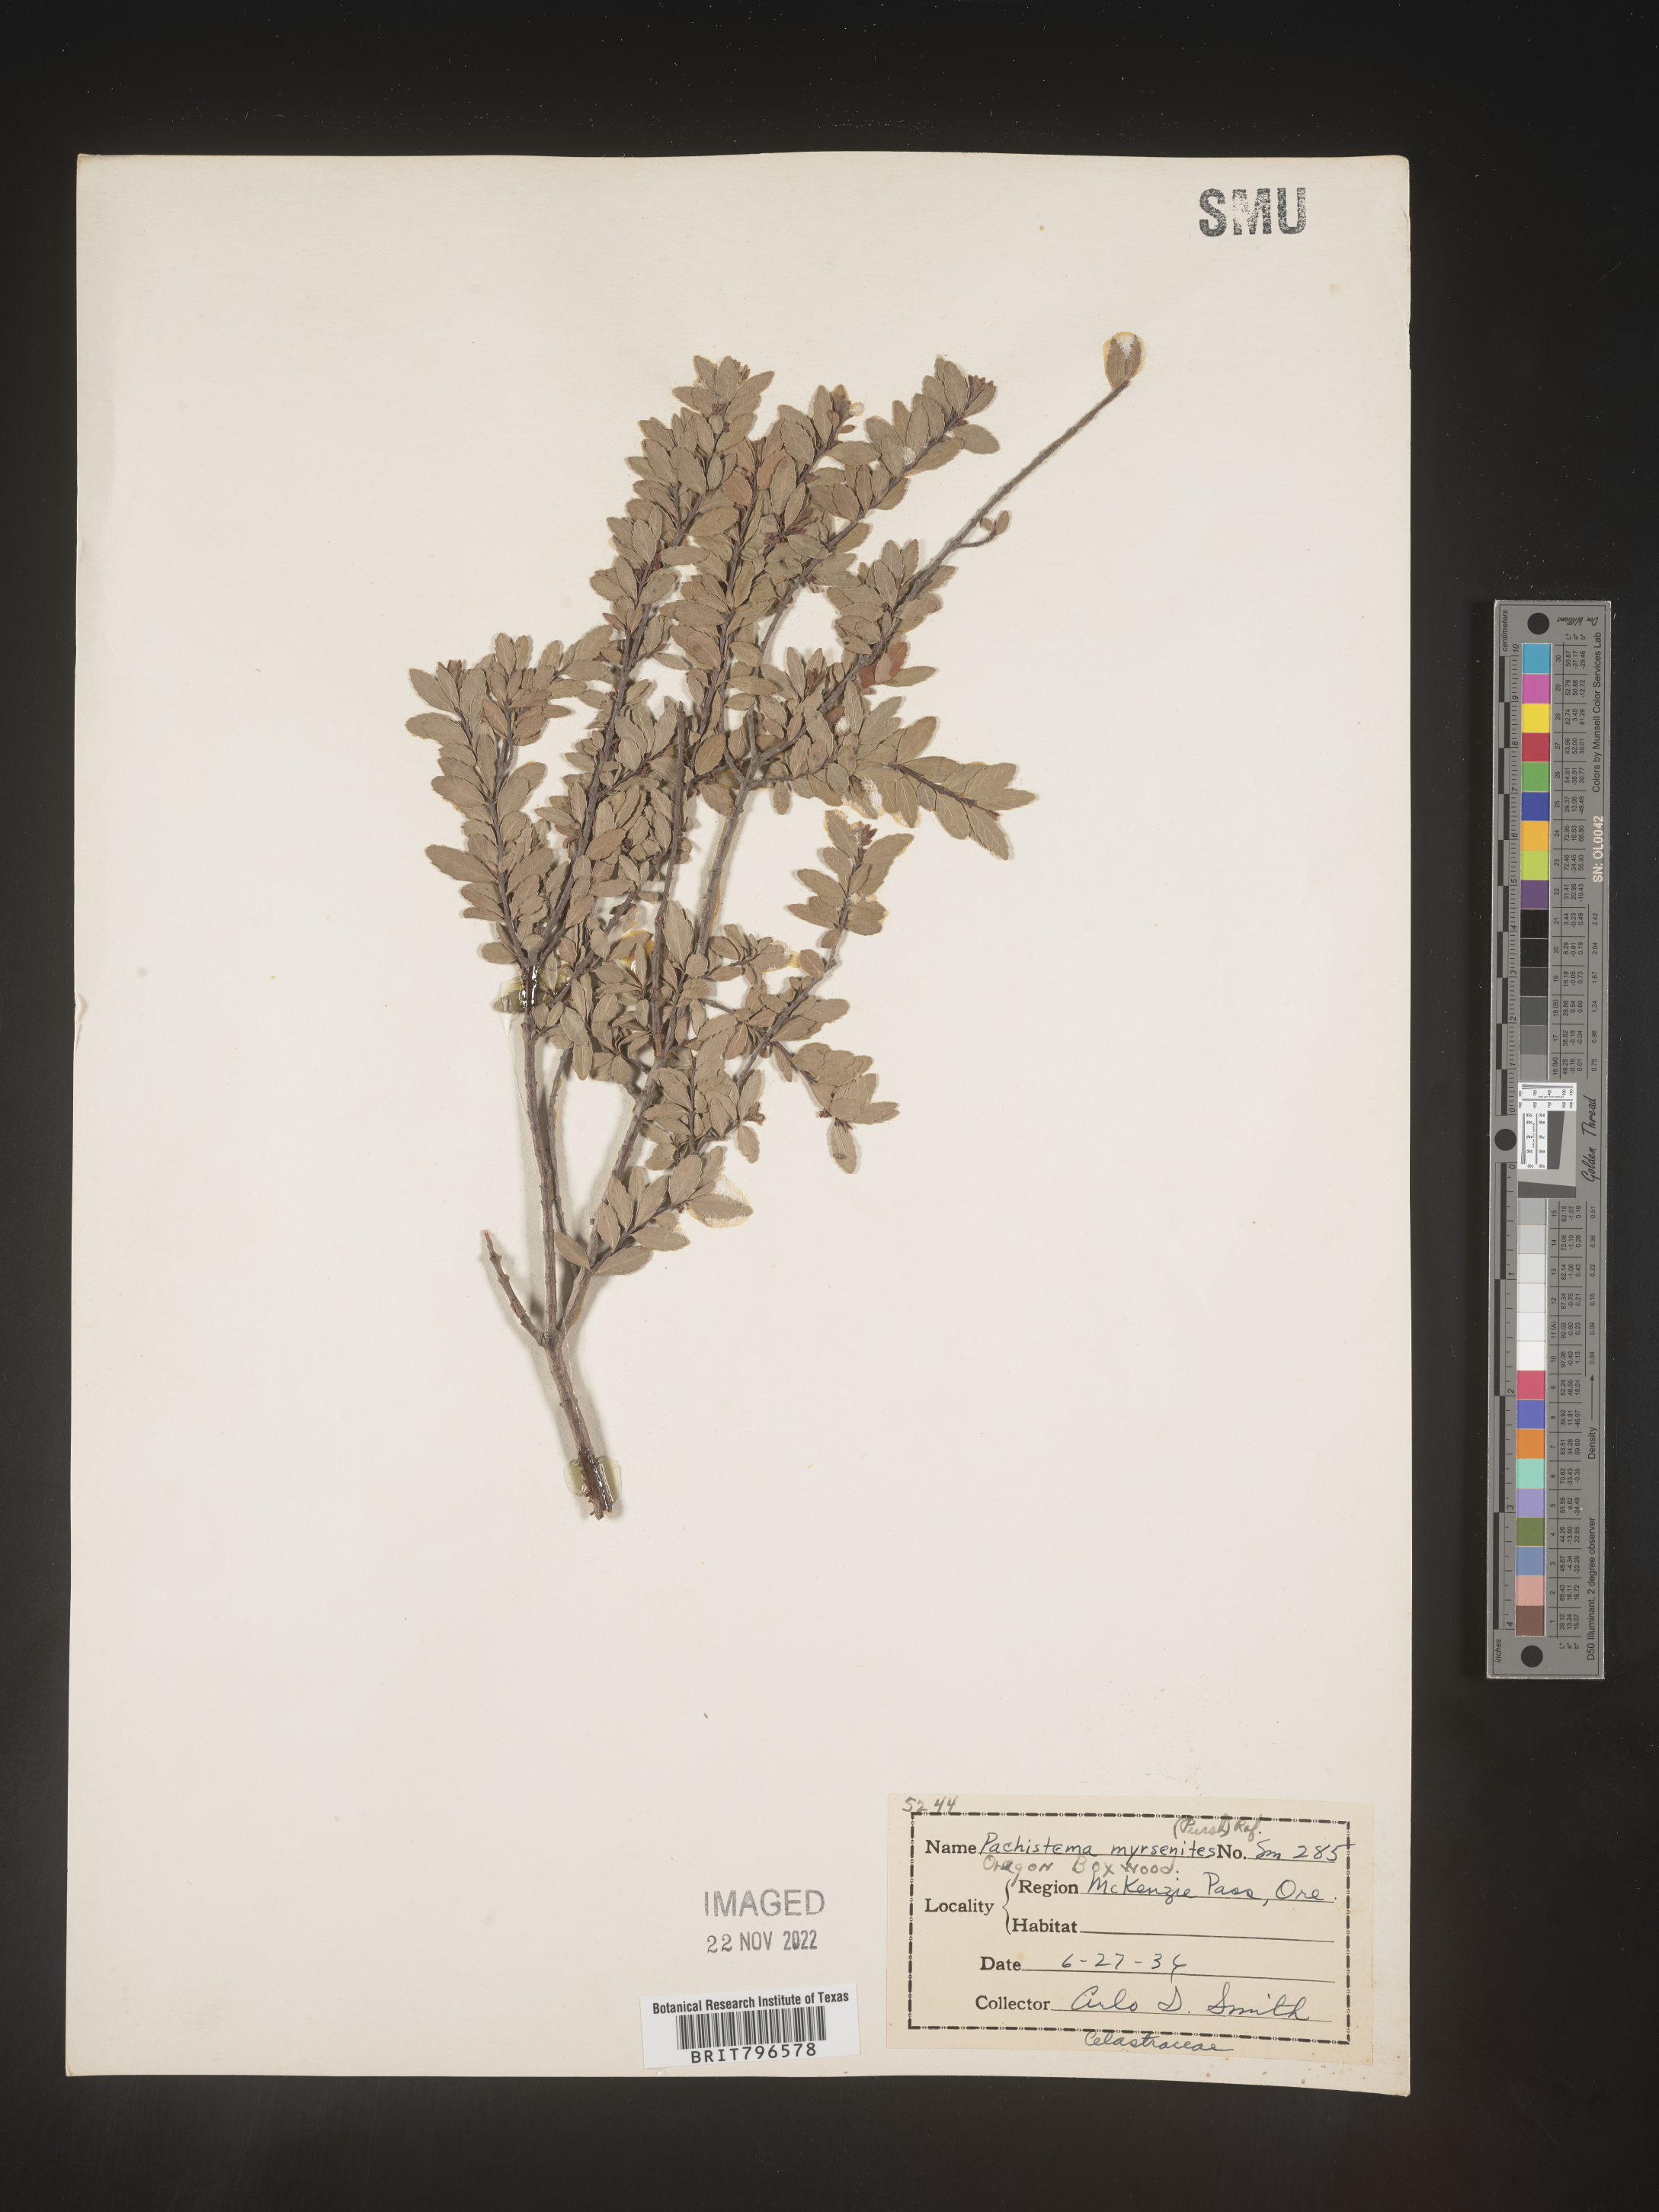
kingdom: Plantae
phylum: Tracheophyta
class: Magnoliopsida
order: Celastrales
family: Celastraceae
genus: Paxistima
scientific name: Paxistima myrsinites
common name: Mountain-lover
